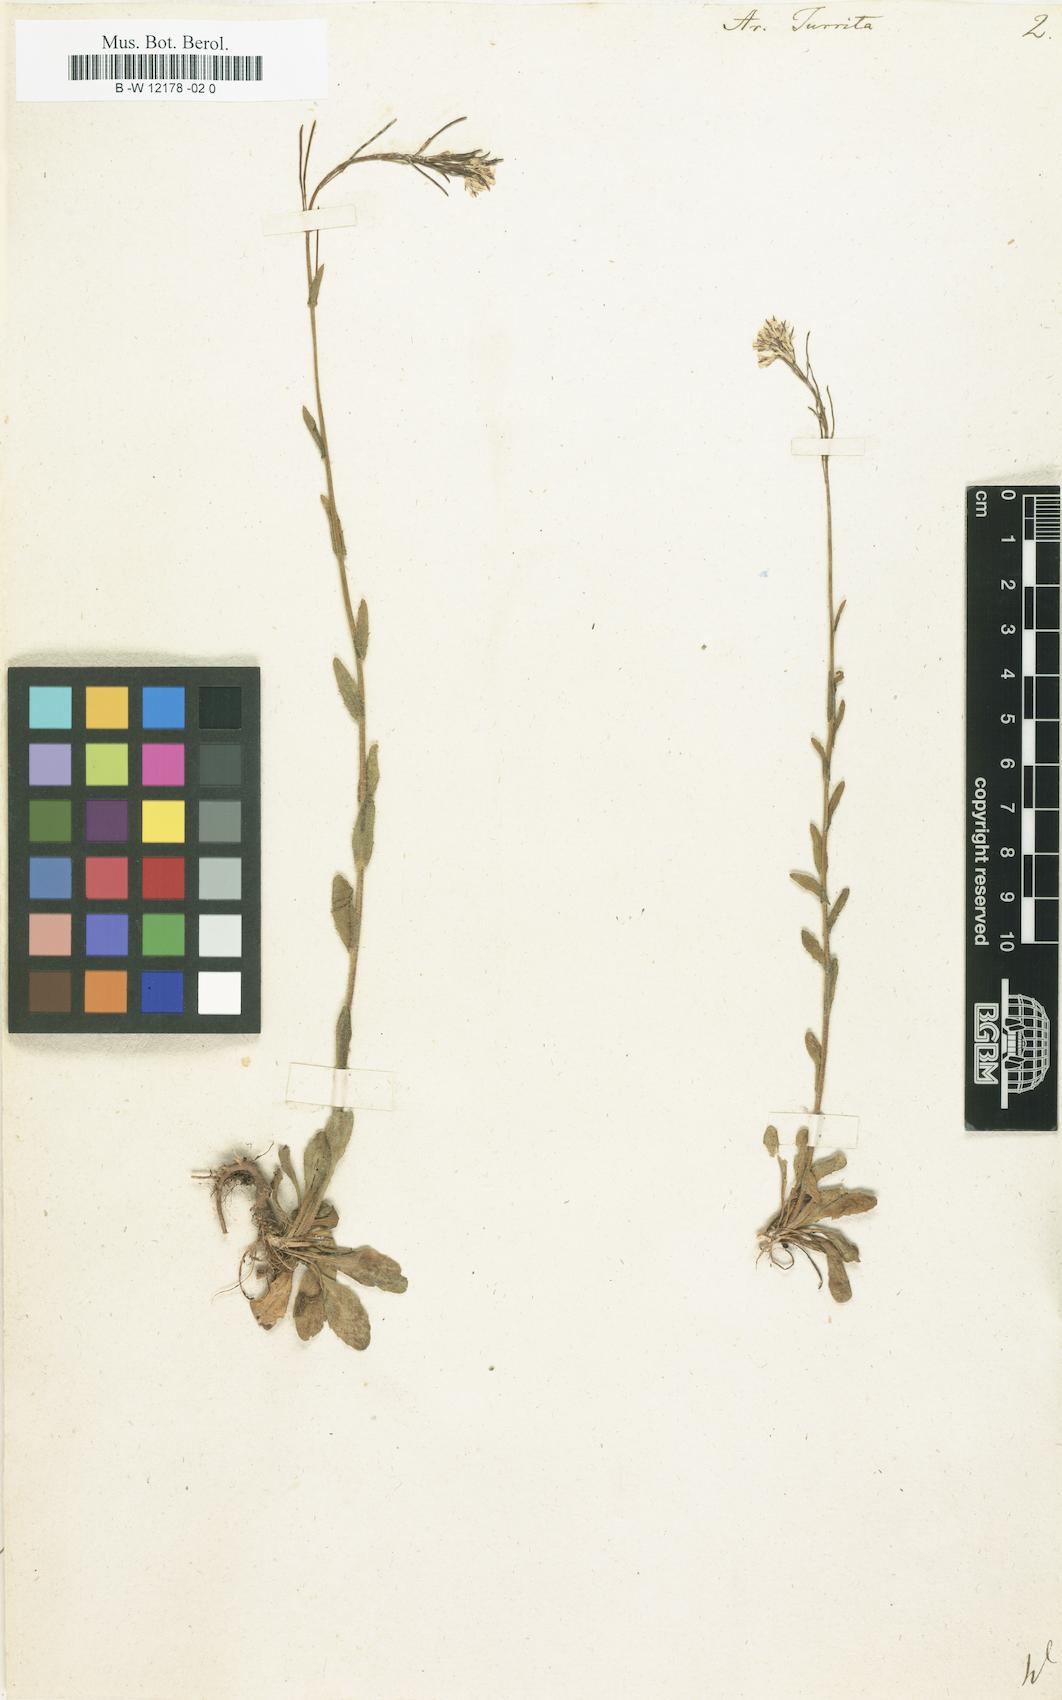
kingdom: Plantae
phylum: Tracheophyta
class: Magnoliopsida
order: Brassicales
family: Brassicaceae
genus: Pseudoturritis
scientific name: Pseudoturritis turrita
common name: Tower cress
